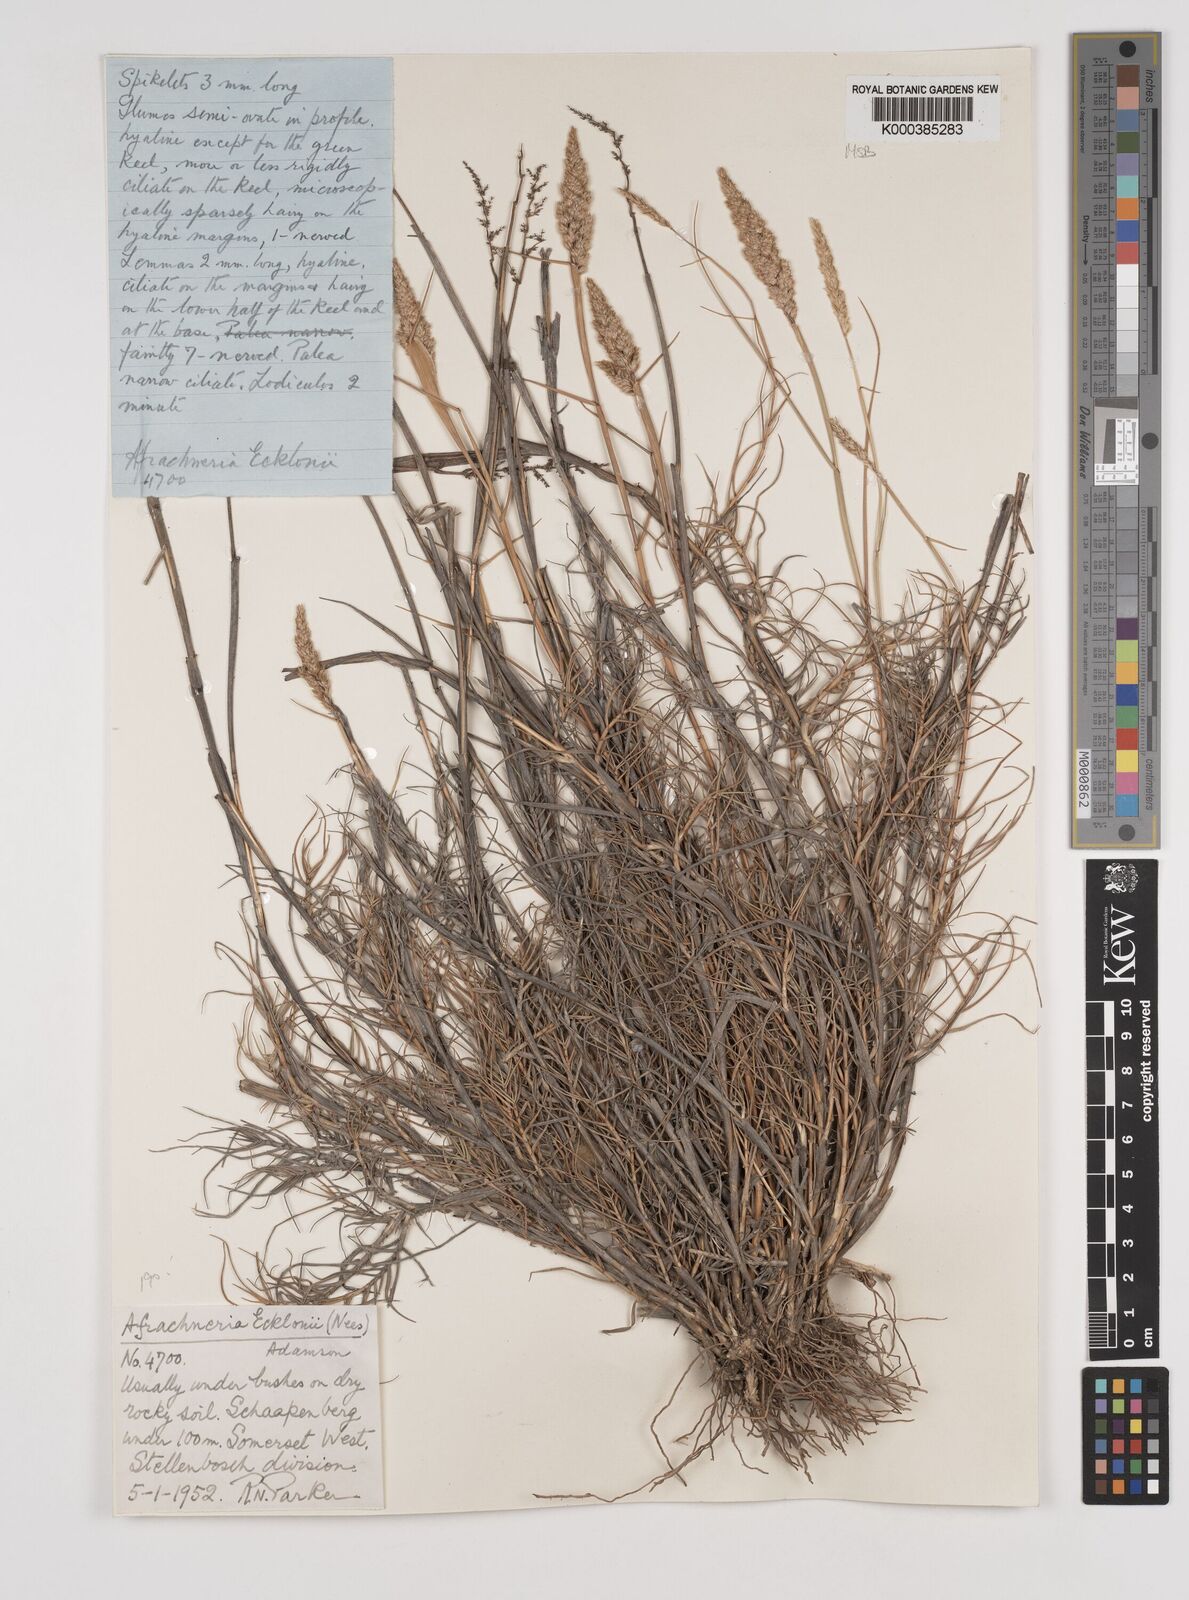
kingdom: Plantae
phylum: Tracheophyta
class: Liliopsida
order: Poales
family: Poaceae
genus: Pentameris
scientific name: Pentameris ecklonii
